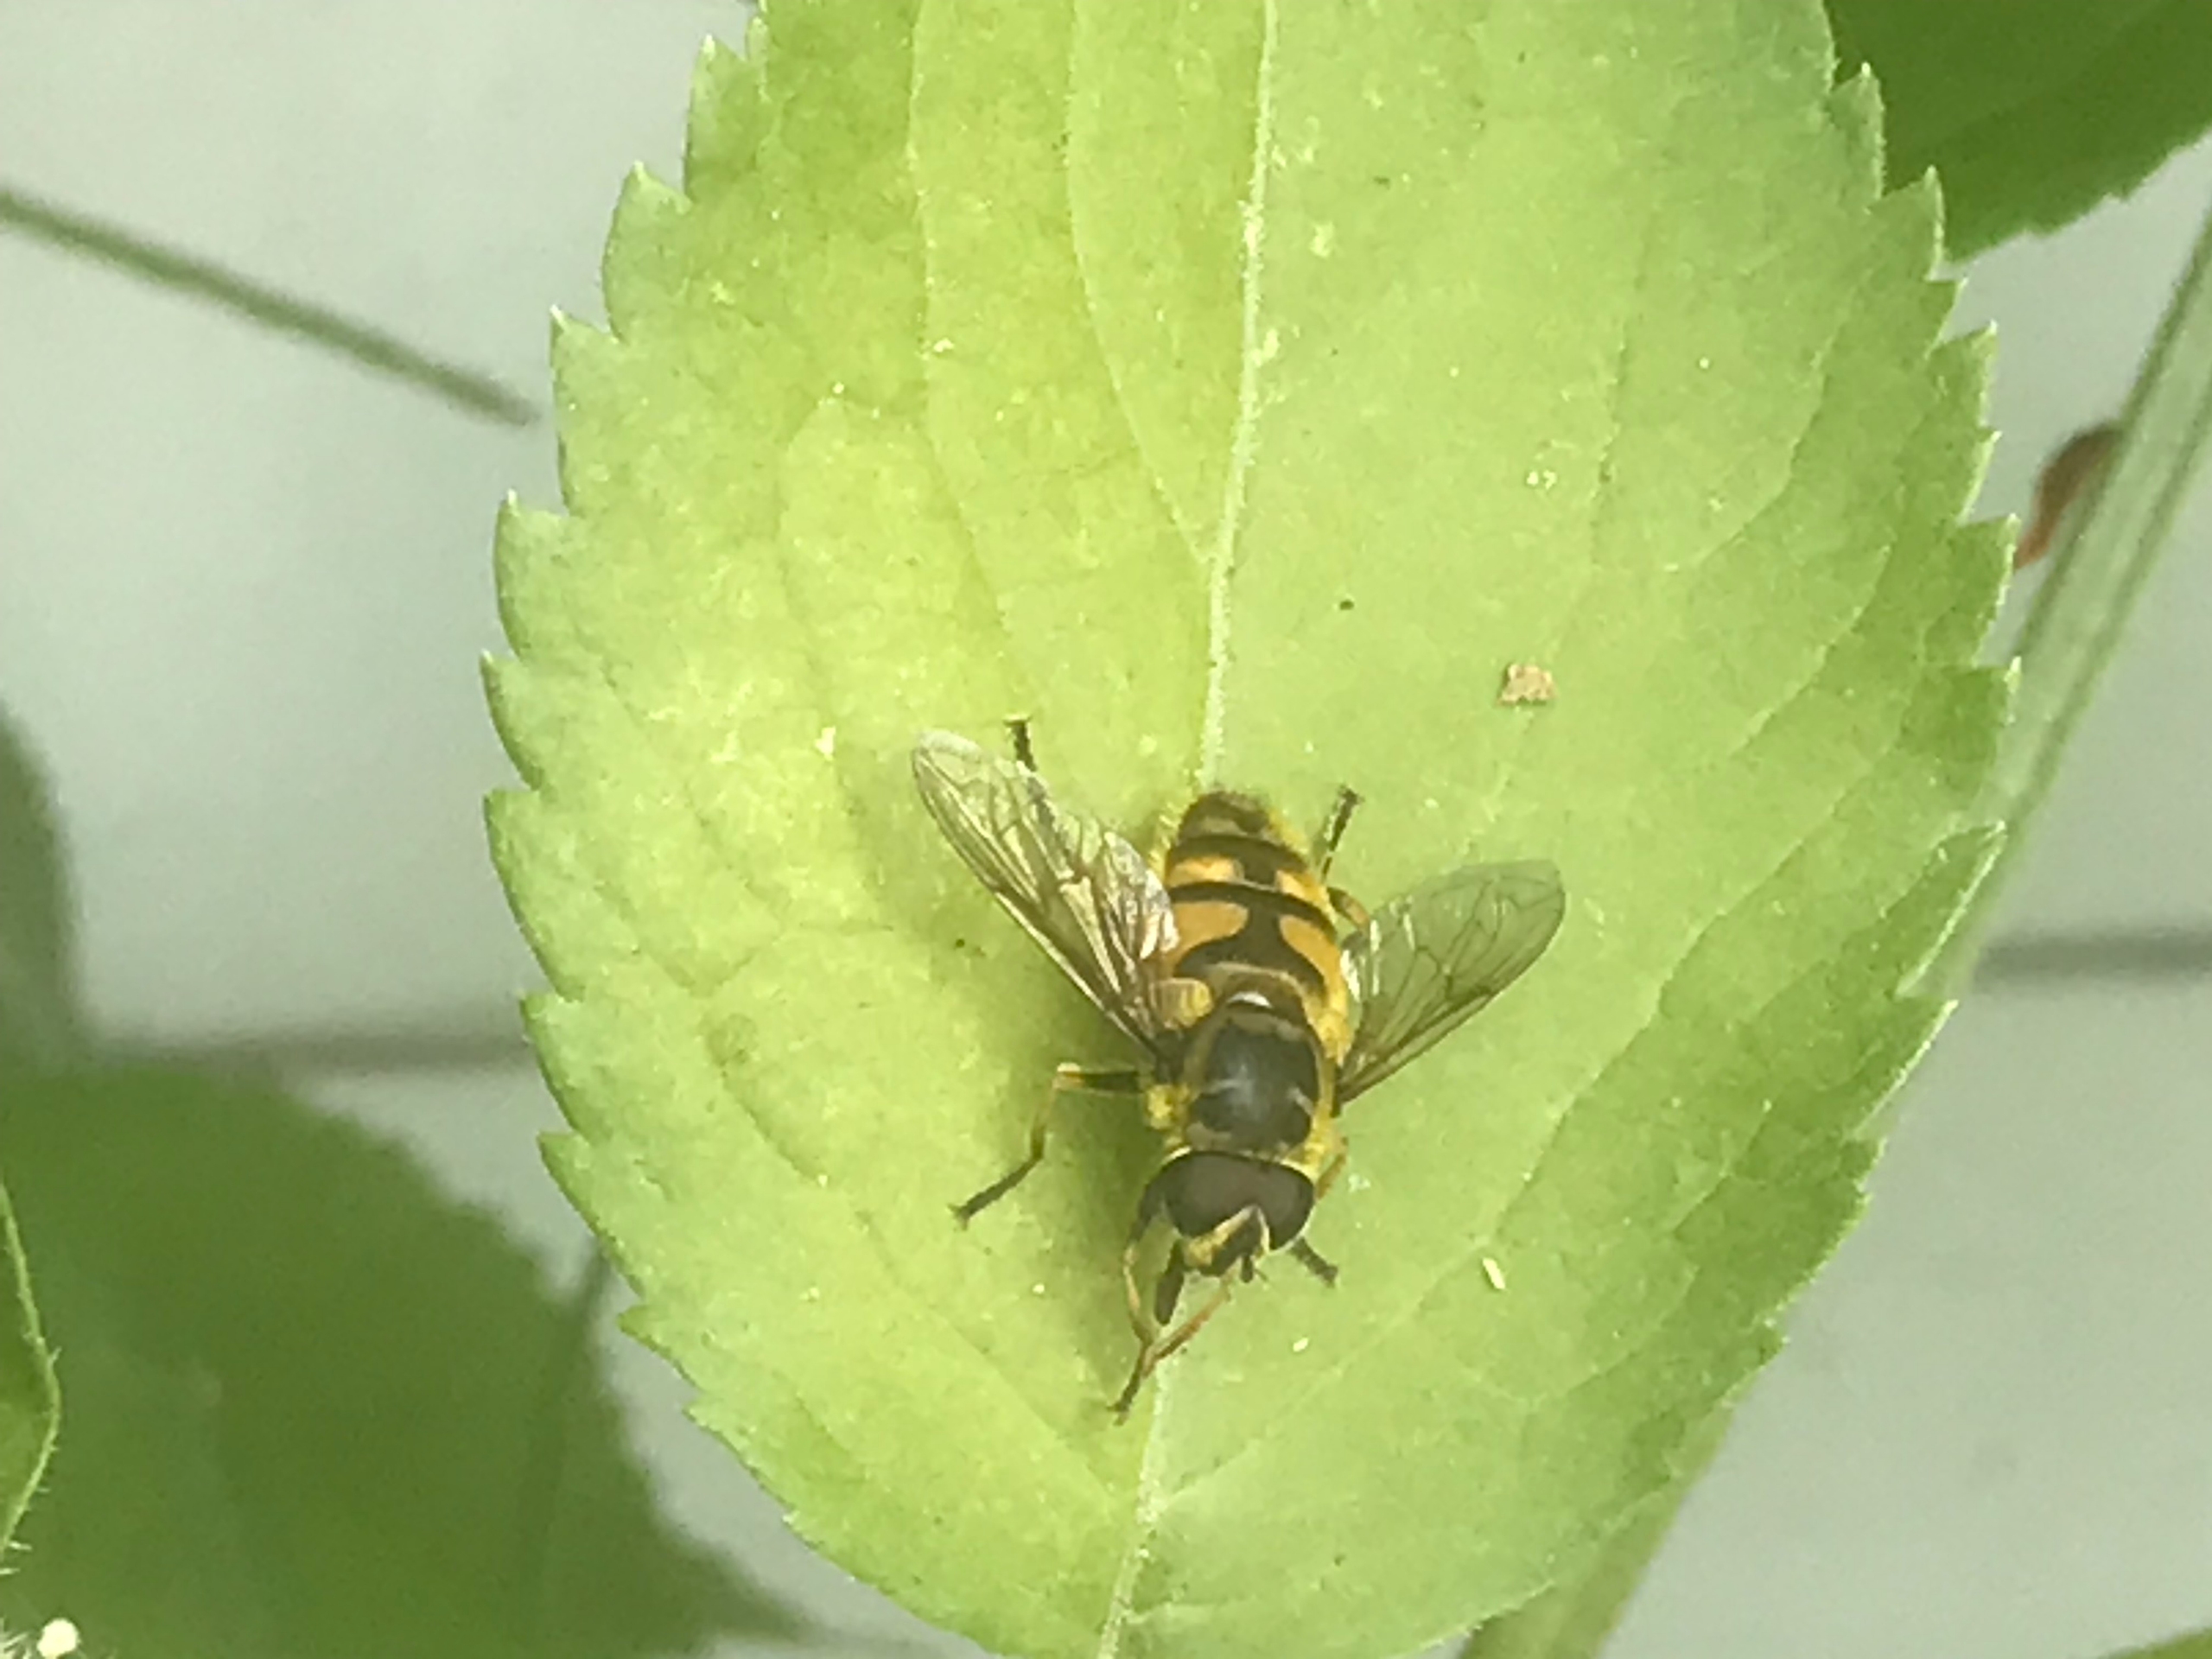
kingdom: Animalia
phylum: Arthropoda
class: Insecta
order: Diptera
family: Syrphidae
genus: Myathropa
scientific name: Myathropa florea
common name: Dødningehoved-svirreflue
